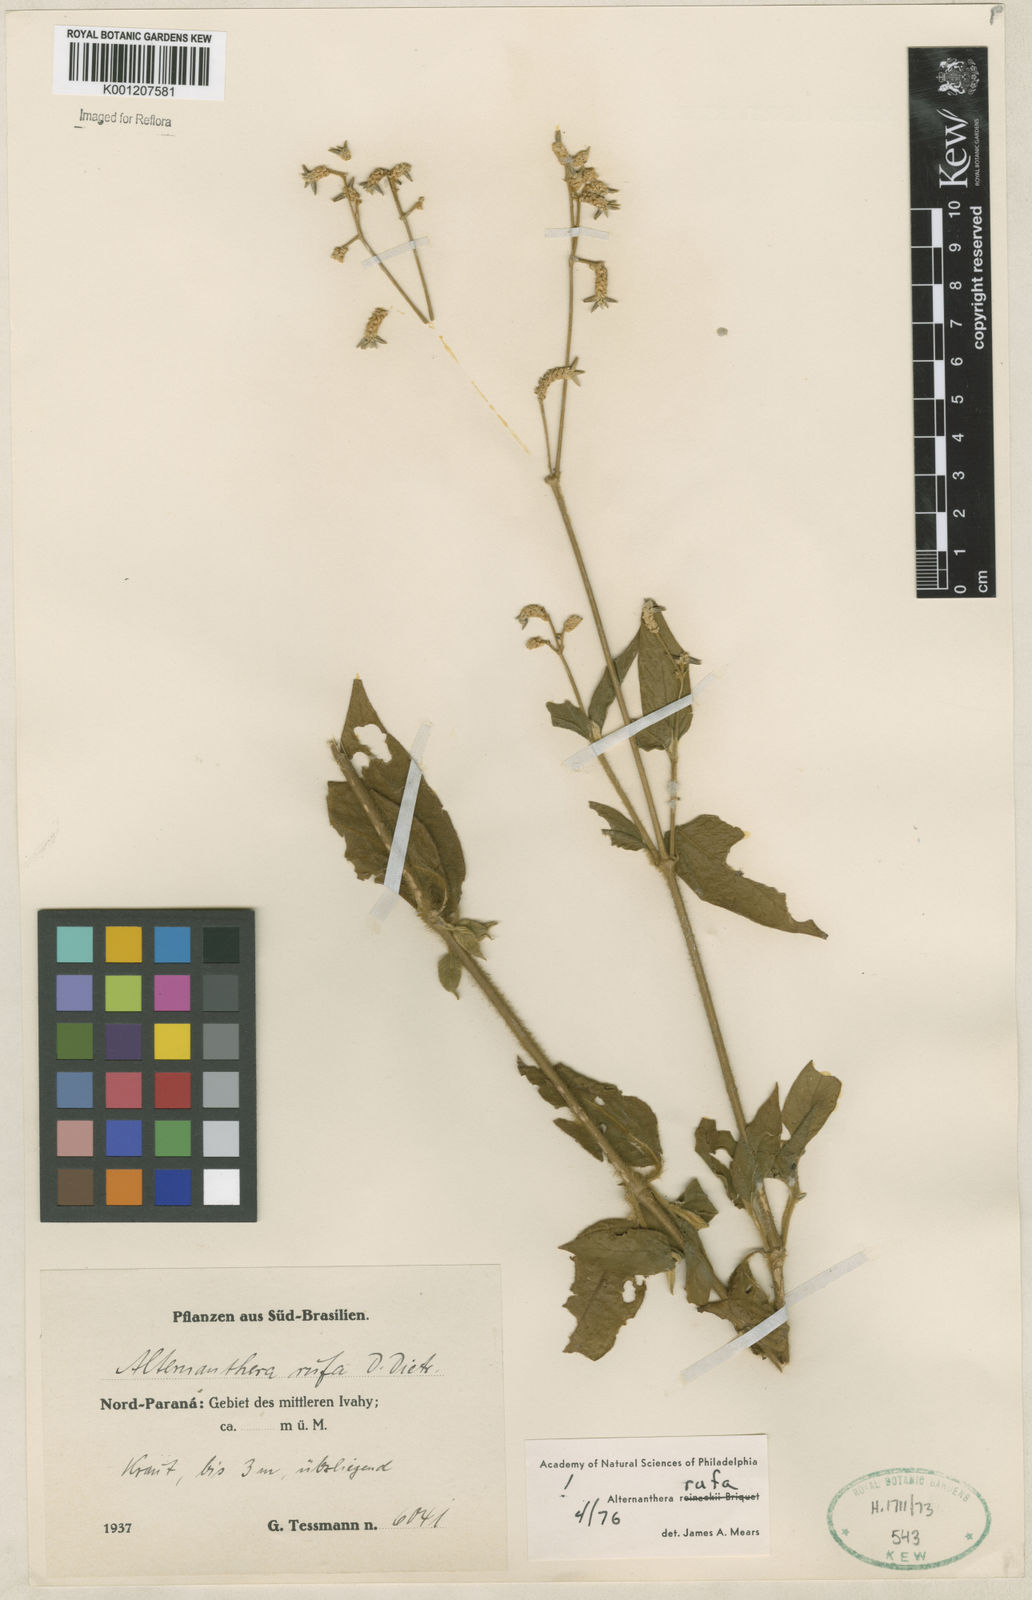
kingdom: Plantae
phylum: Tracheophyta
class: Magnoliopsida
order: Caryophyllales
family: Amaranthaceae
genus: Alternanthera
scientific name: Alternanthera rufa
